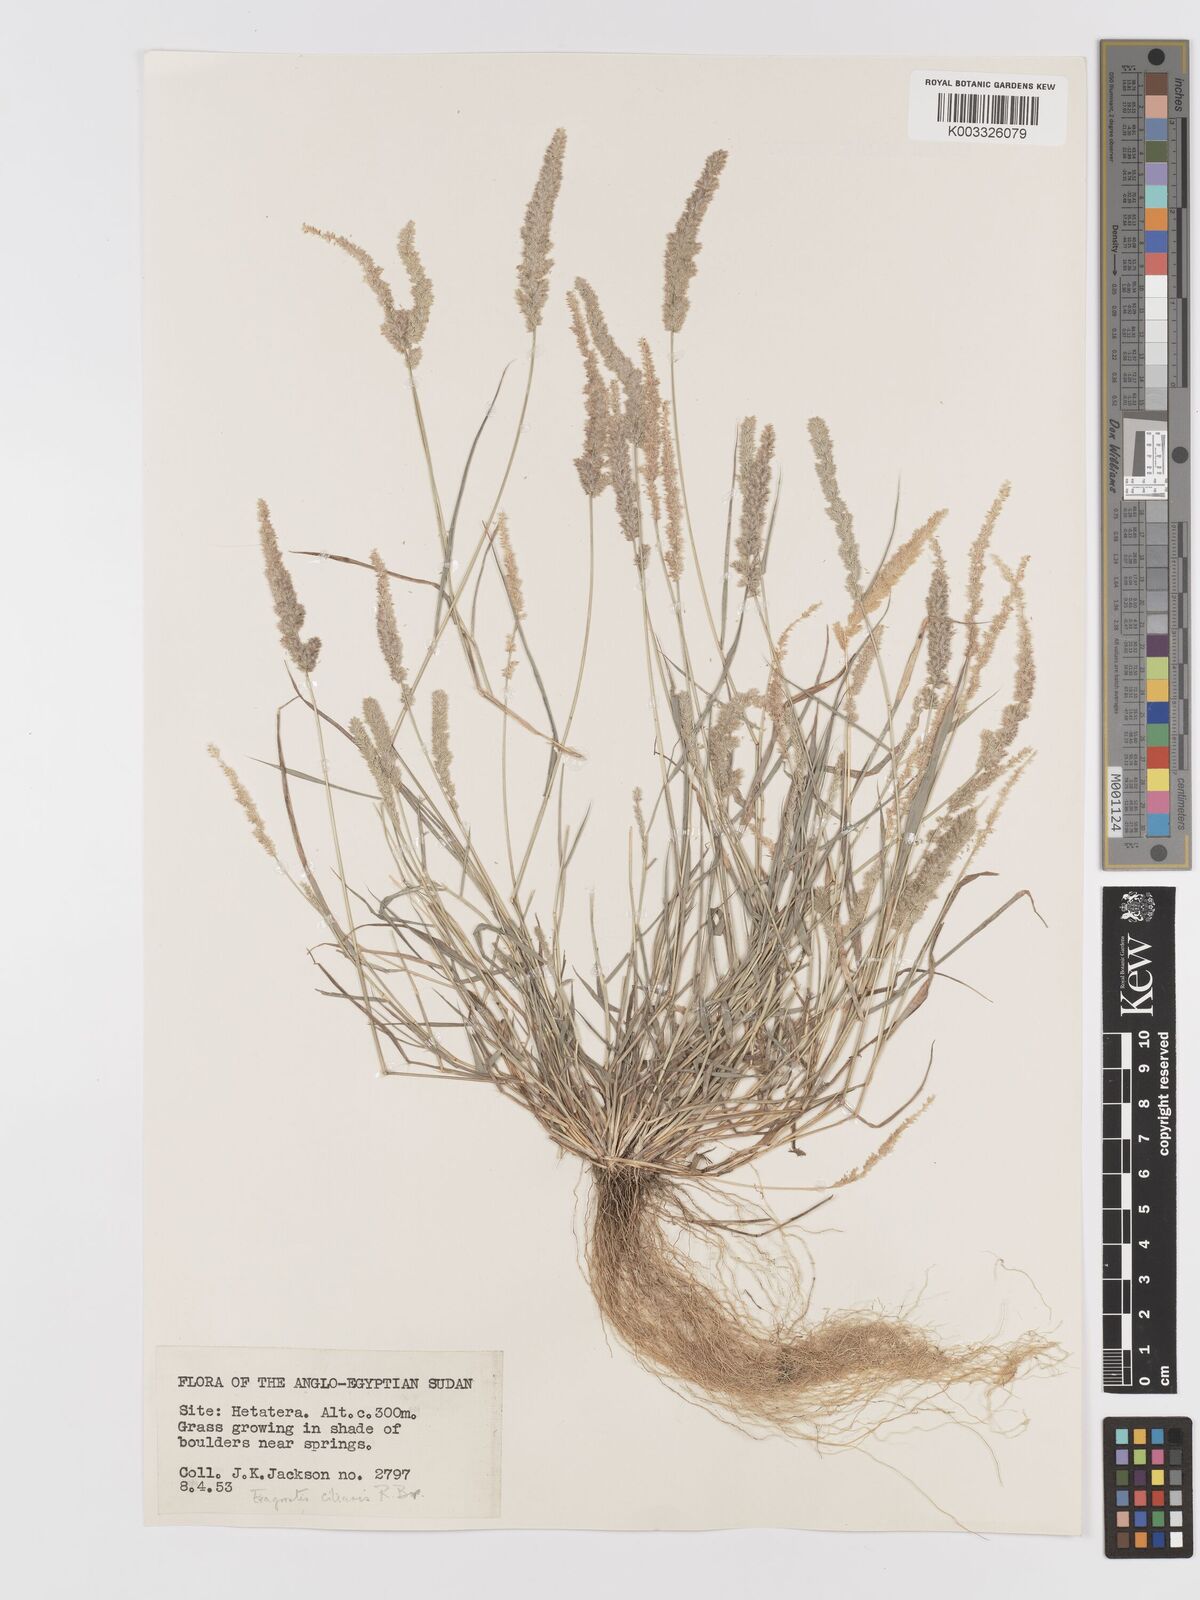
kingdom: Plantae
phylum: Tracheophyta
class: Liliopsida
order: Poales
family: Poaceae
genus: Eragrostis
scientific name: Eragrostis ciliaris
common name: Gophertail lovegrass
